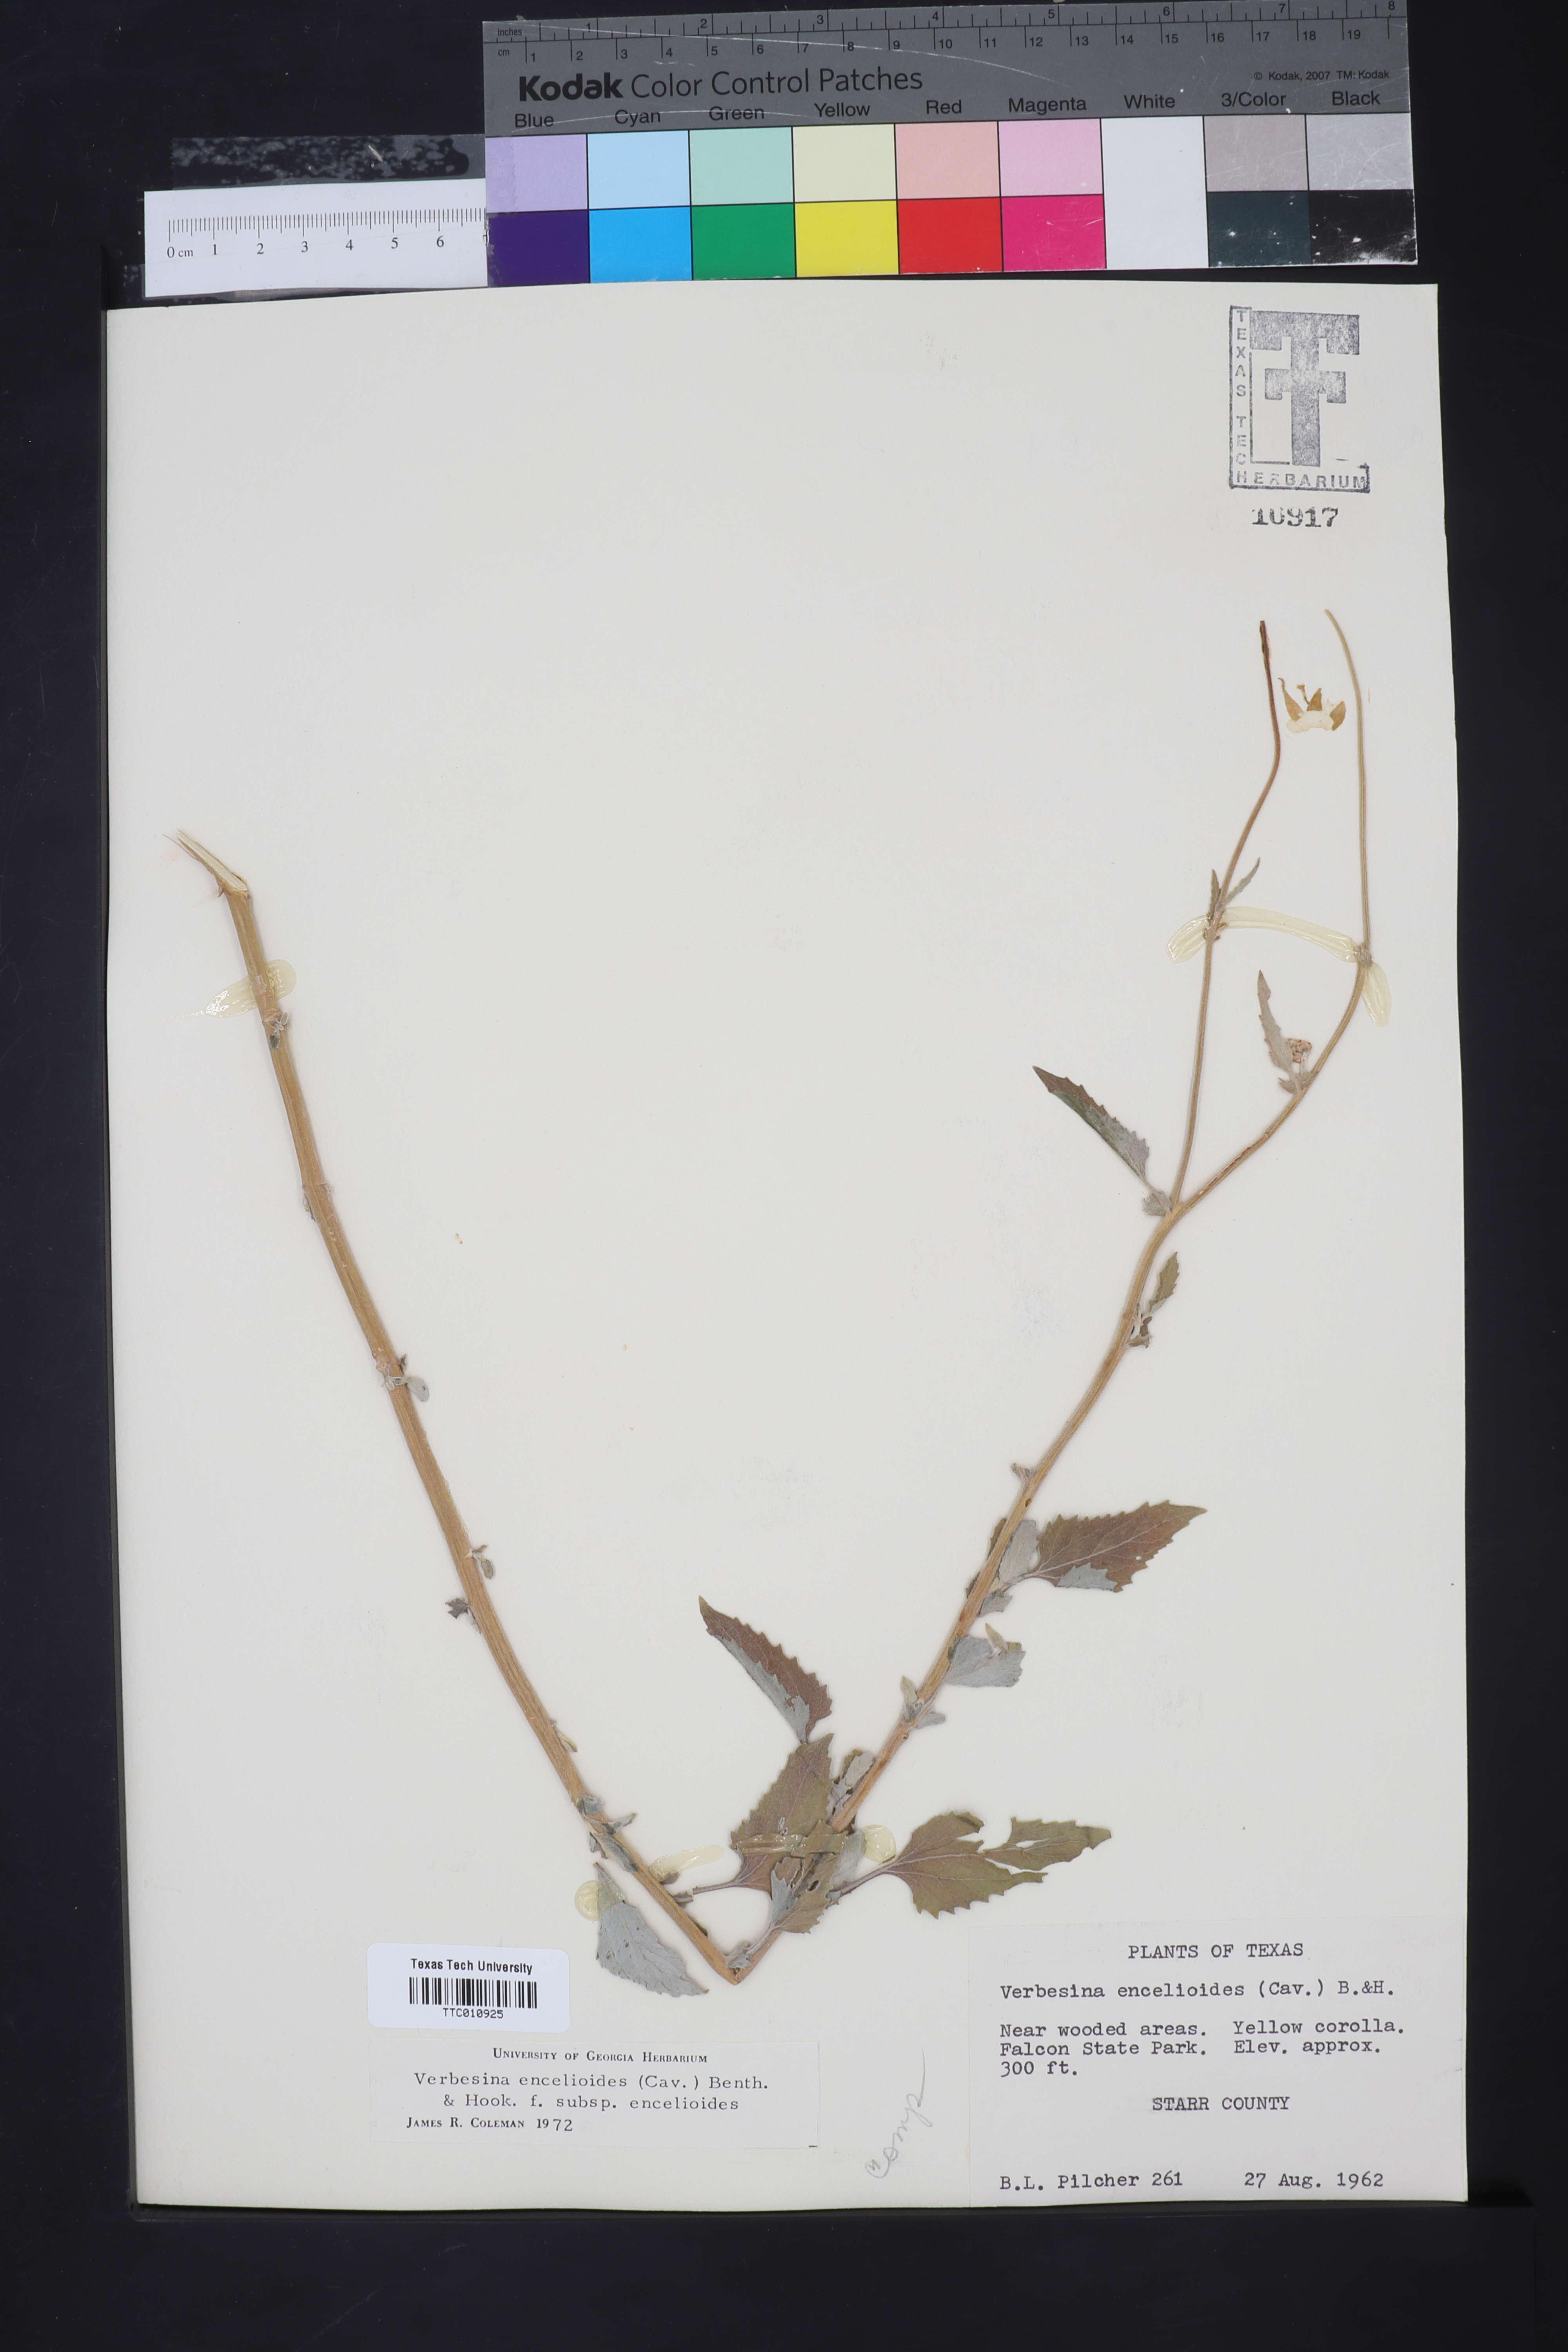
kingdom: Plantae
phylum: Tracheophyta
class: Magnoliopsida
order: Asterales
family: Asteraceae
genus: Verbesina
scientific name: Verbesina encelioides
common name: Golden crownbeard
